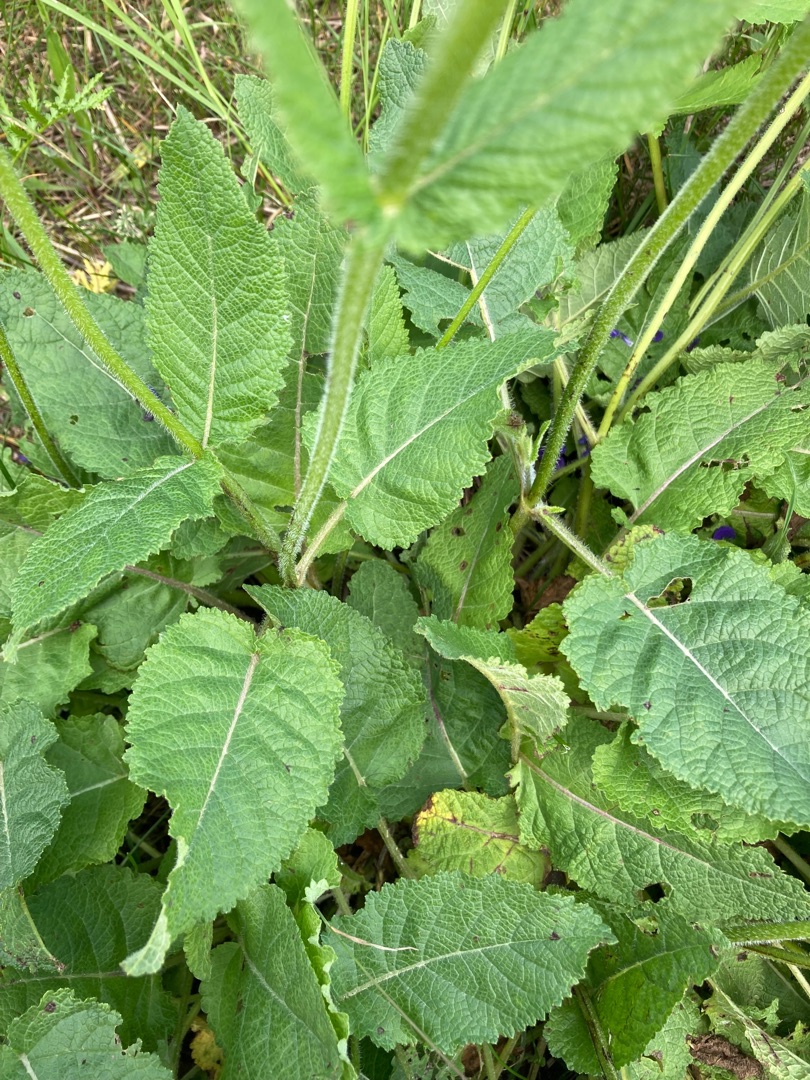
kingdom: Plantae
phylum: Tracheophyta
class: Magnoliopsida
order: Lamiales
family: Lamiaceae
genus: Salvia
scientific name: Salvia pratensis
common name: Eng-salvie
